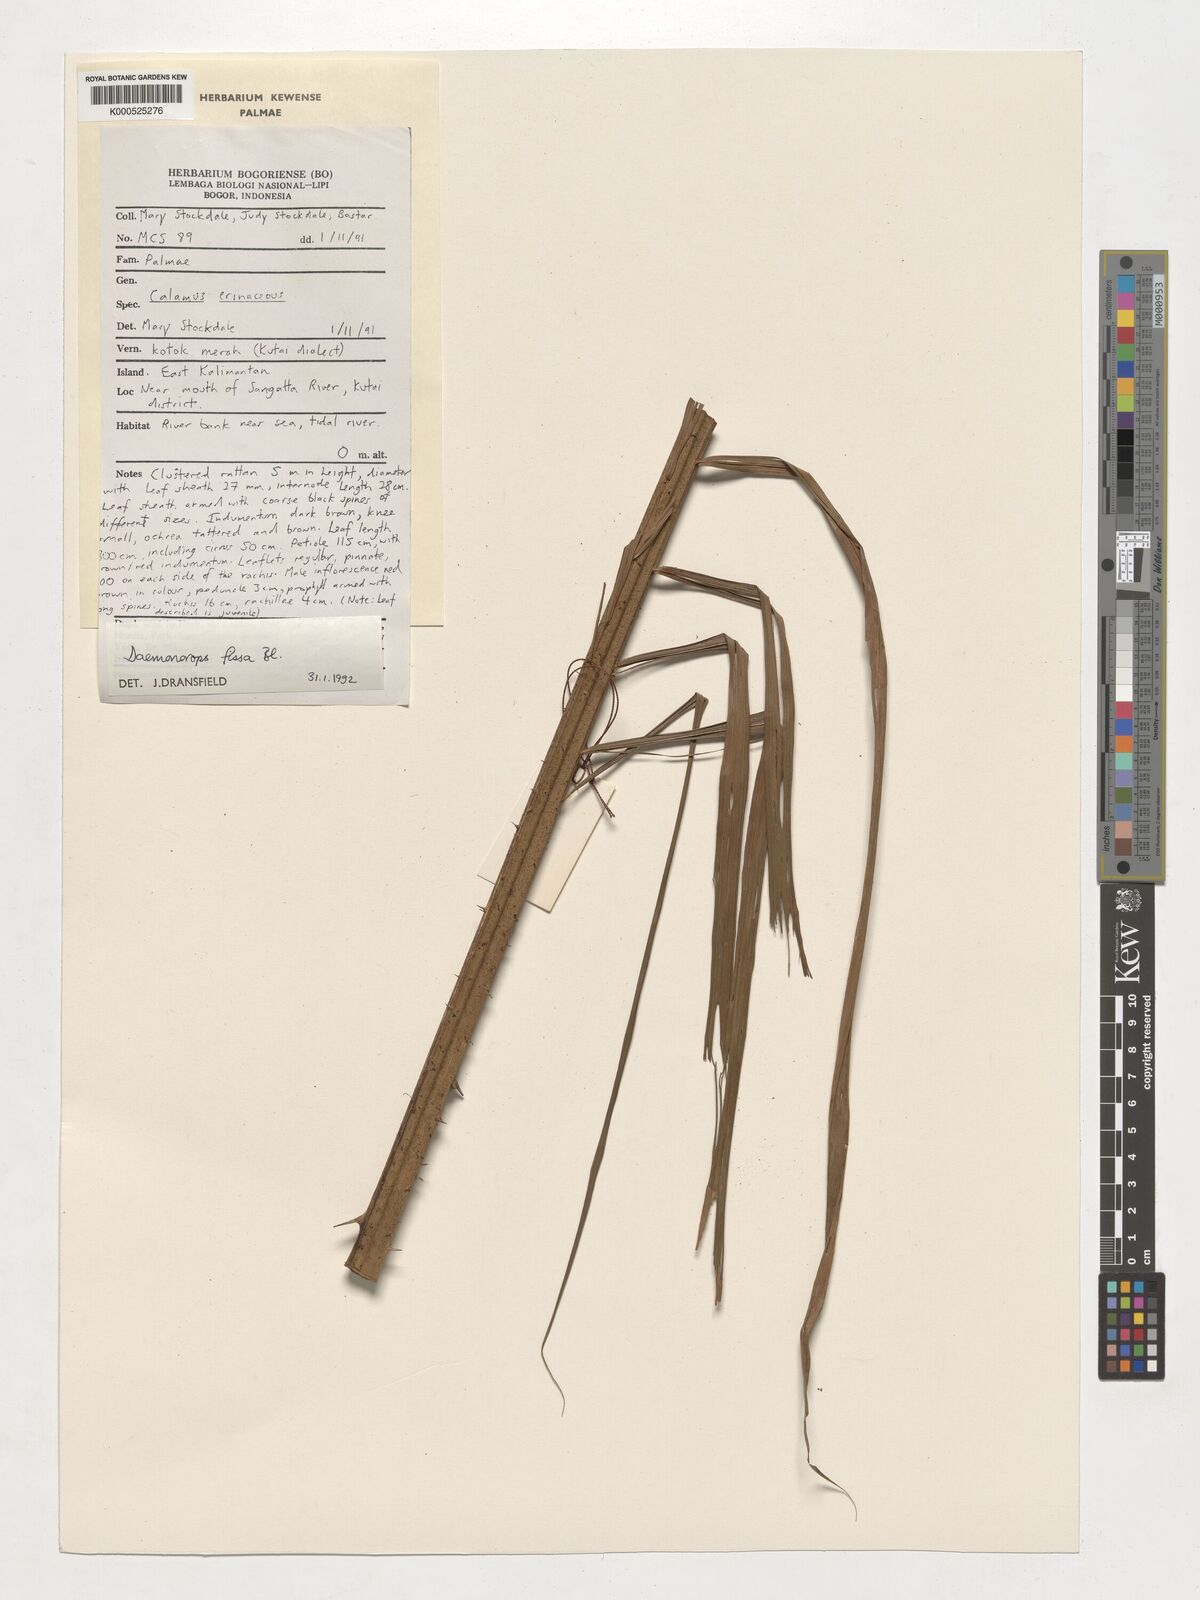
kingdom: Plantae
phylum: Tracheophyta
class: Liliopsida
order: Arecales
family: Arecaceae
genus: Calamus
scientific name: Calamus melanochaetes
